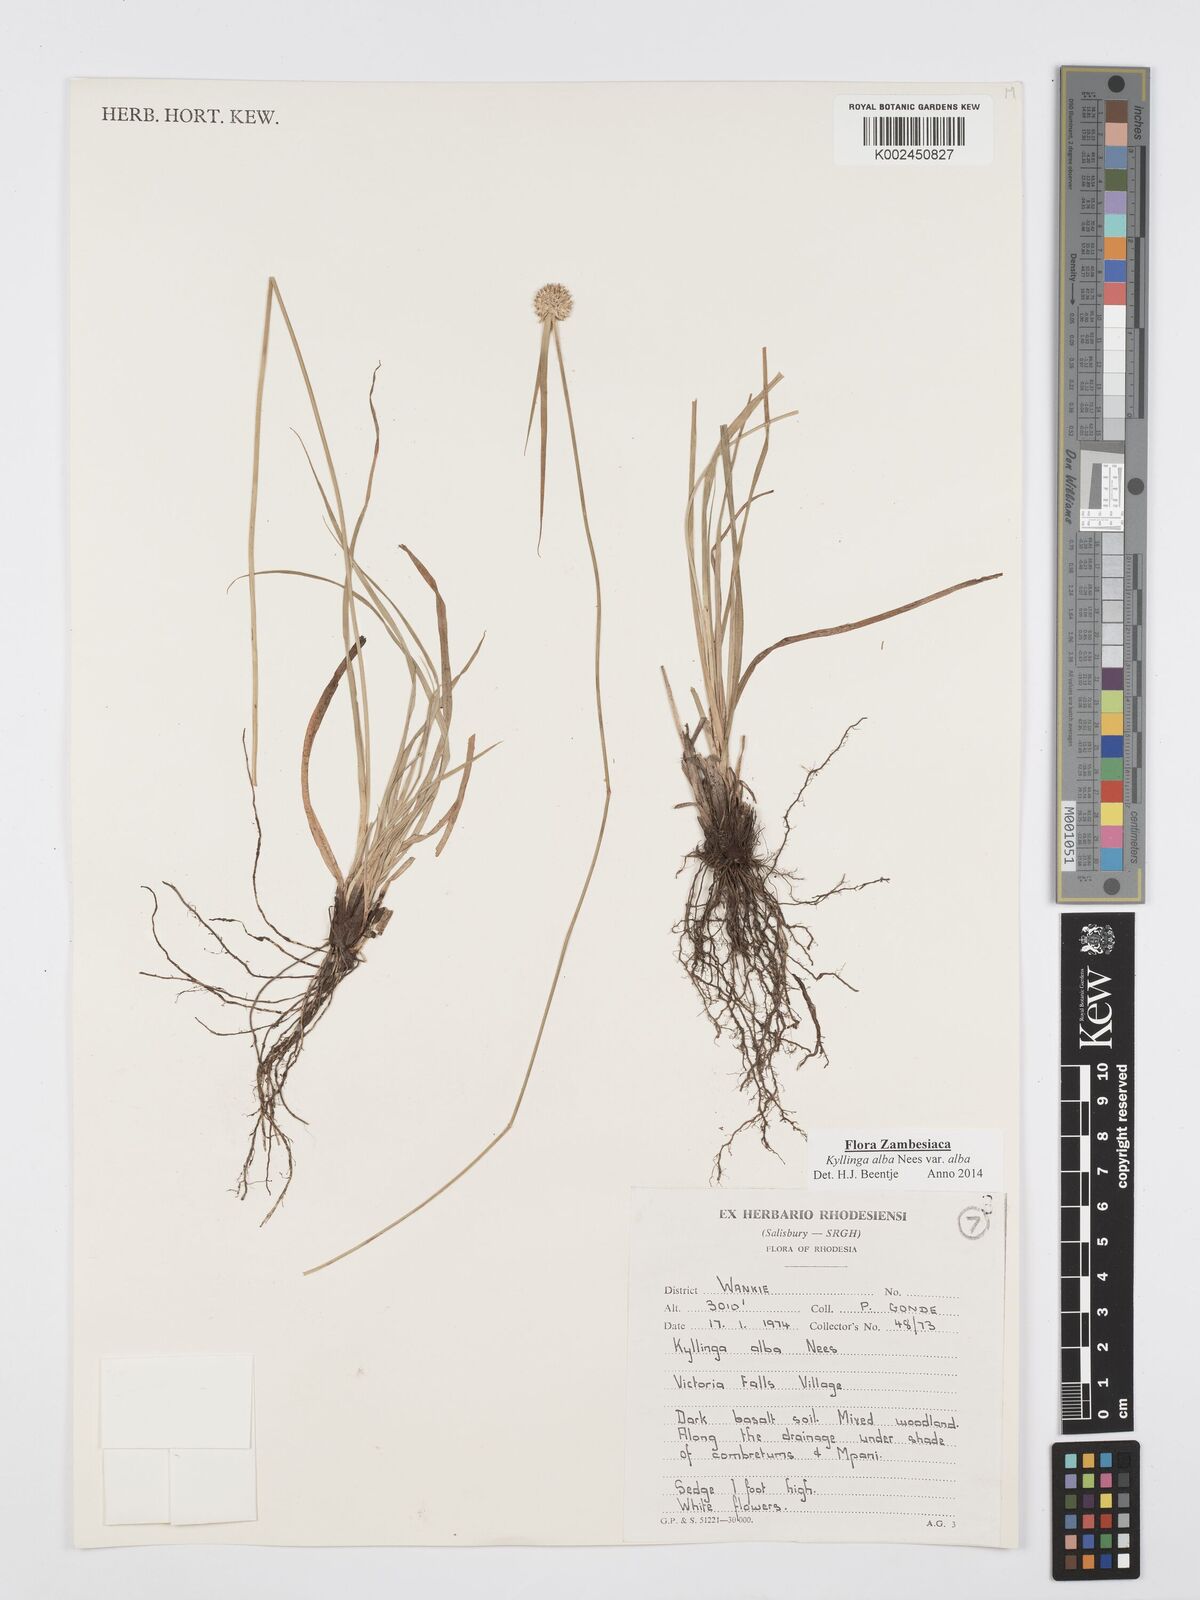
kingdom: Plantae
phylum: Tracheophyta
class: Liliopsida
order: Poales
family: Cyperaceae
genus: Cyperus
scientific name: Cyperus
